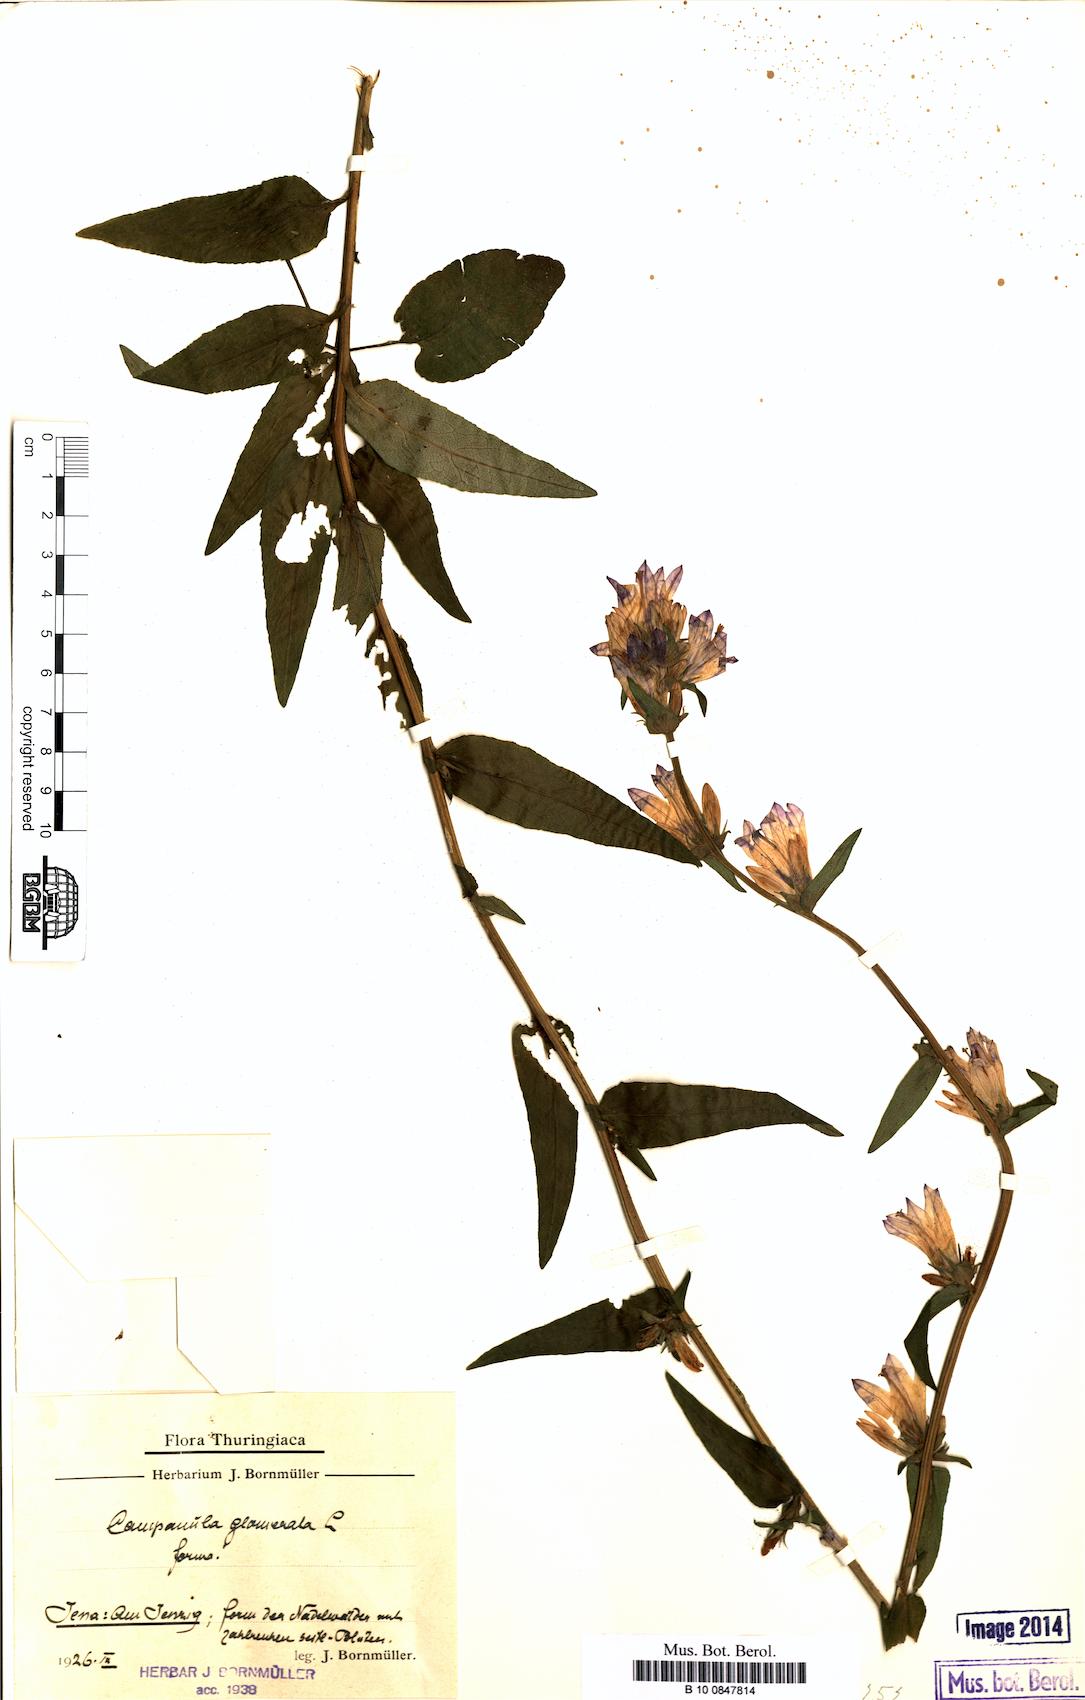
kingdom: Plantae
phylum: Tracheophyta
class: Magnoliopsida
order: Asterales
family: Campanulaceae
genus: Campanula
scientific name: Campanula glomerata
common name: Clustered bellflower
